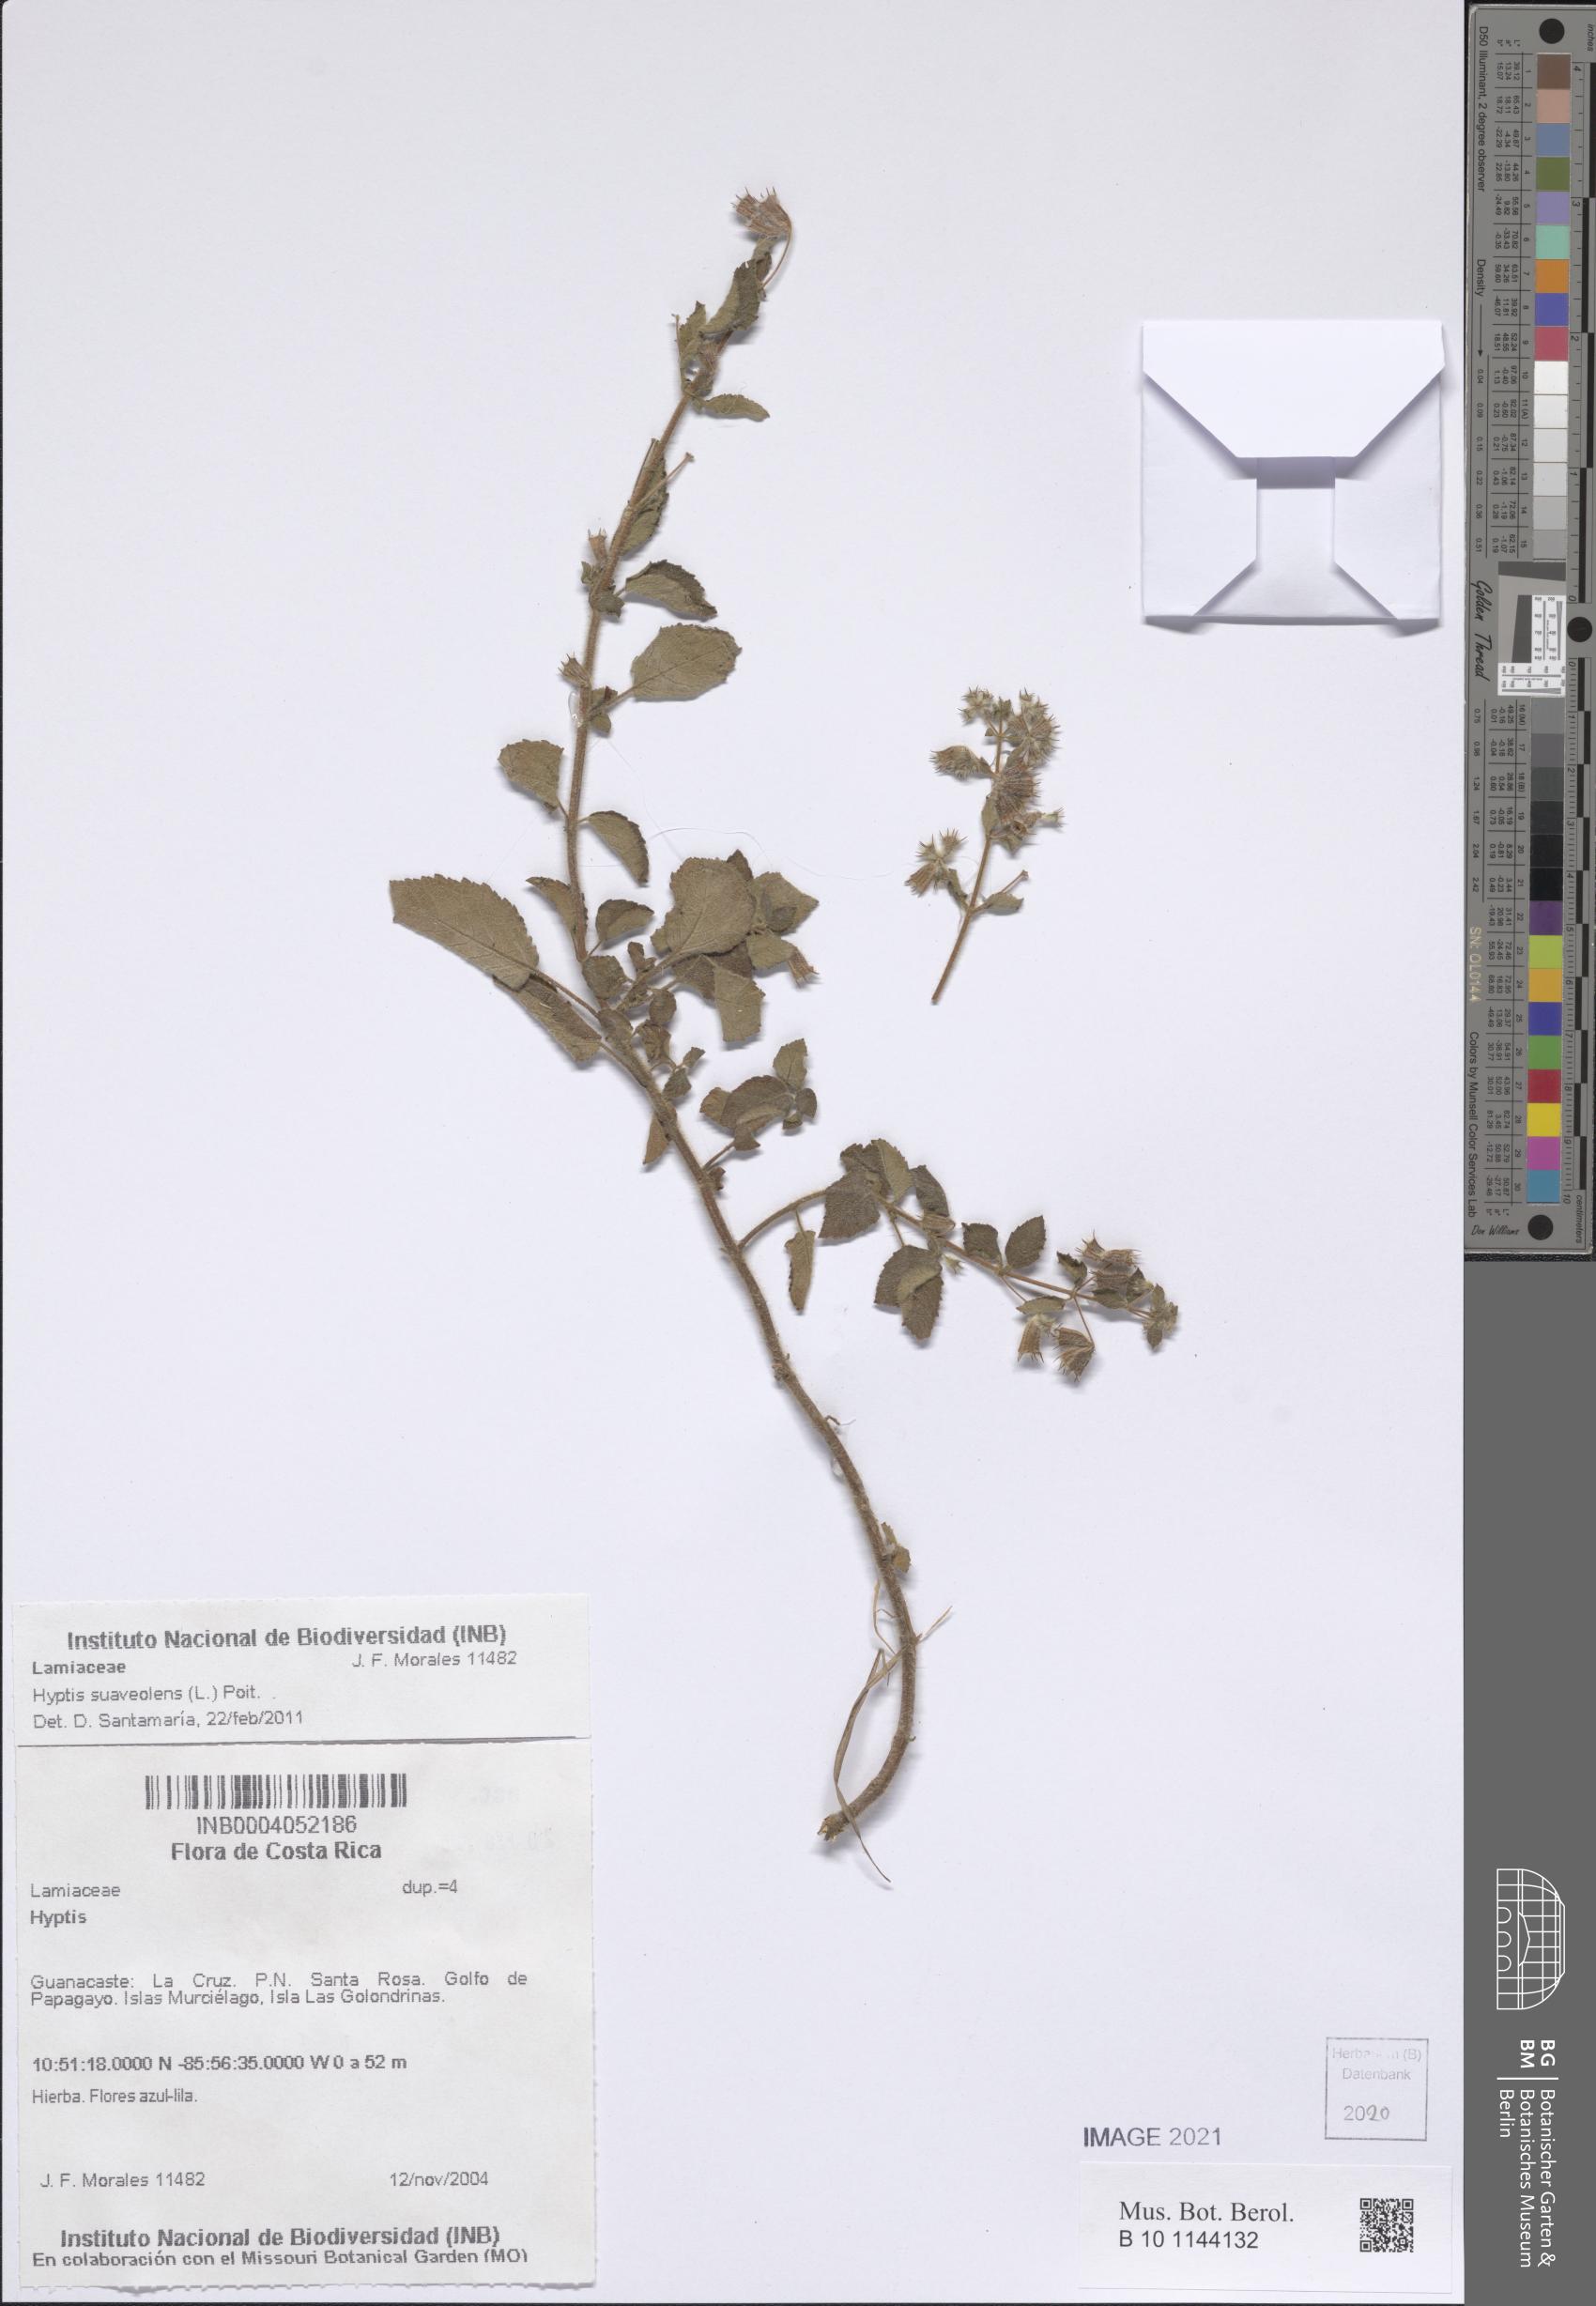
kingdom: Plantae
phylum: Tracheophyta
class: Magnoliopsida
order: Lamiales
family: Lamiaceae
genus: Mesosphaerum
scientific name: Mesosphaerum suaveolens
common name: Pignut
